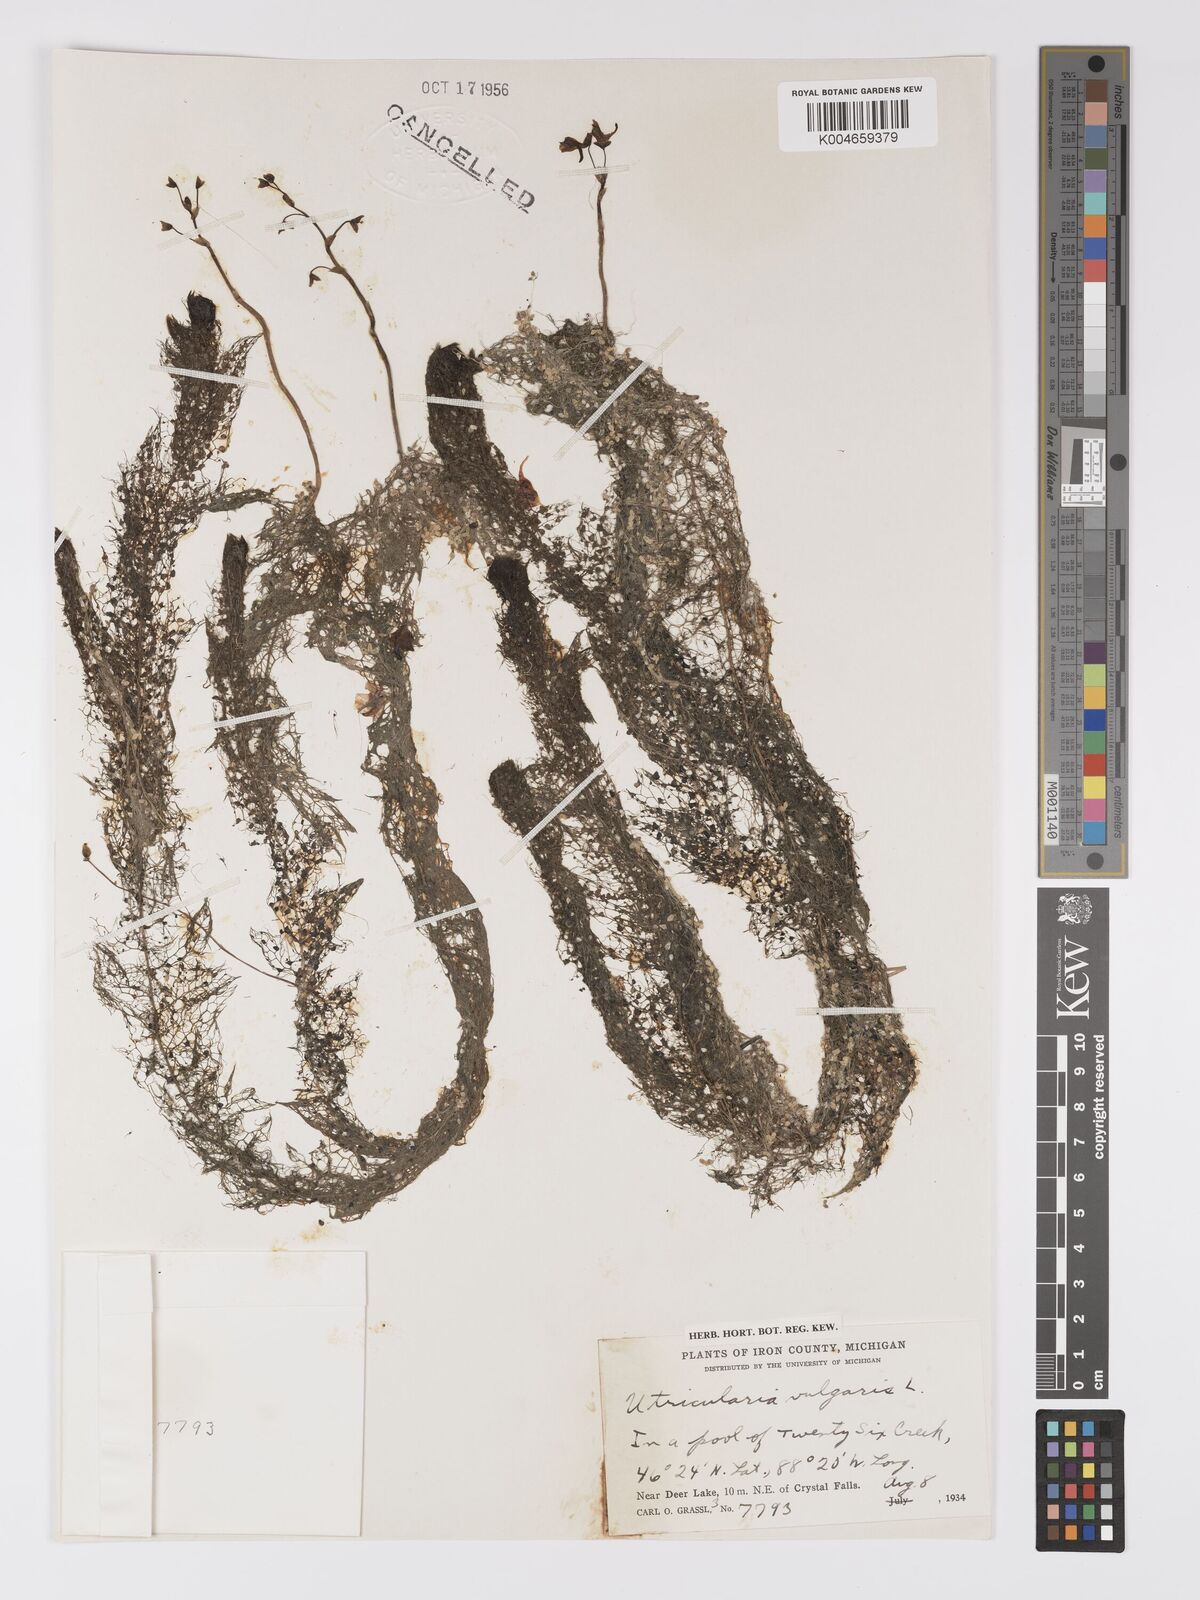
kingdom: Plantae
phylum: Tracheophyta
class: Magnoliopsida
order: Lamiales
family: Lentibulariaceae
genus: Utricularia
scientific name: Utricularia macrorhiza
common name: Common bladderwort
